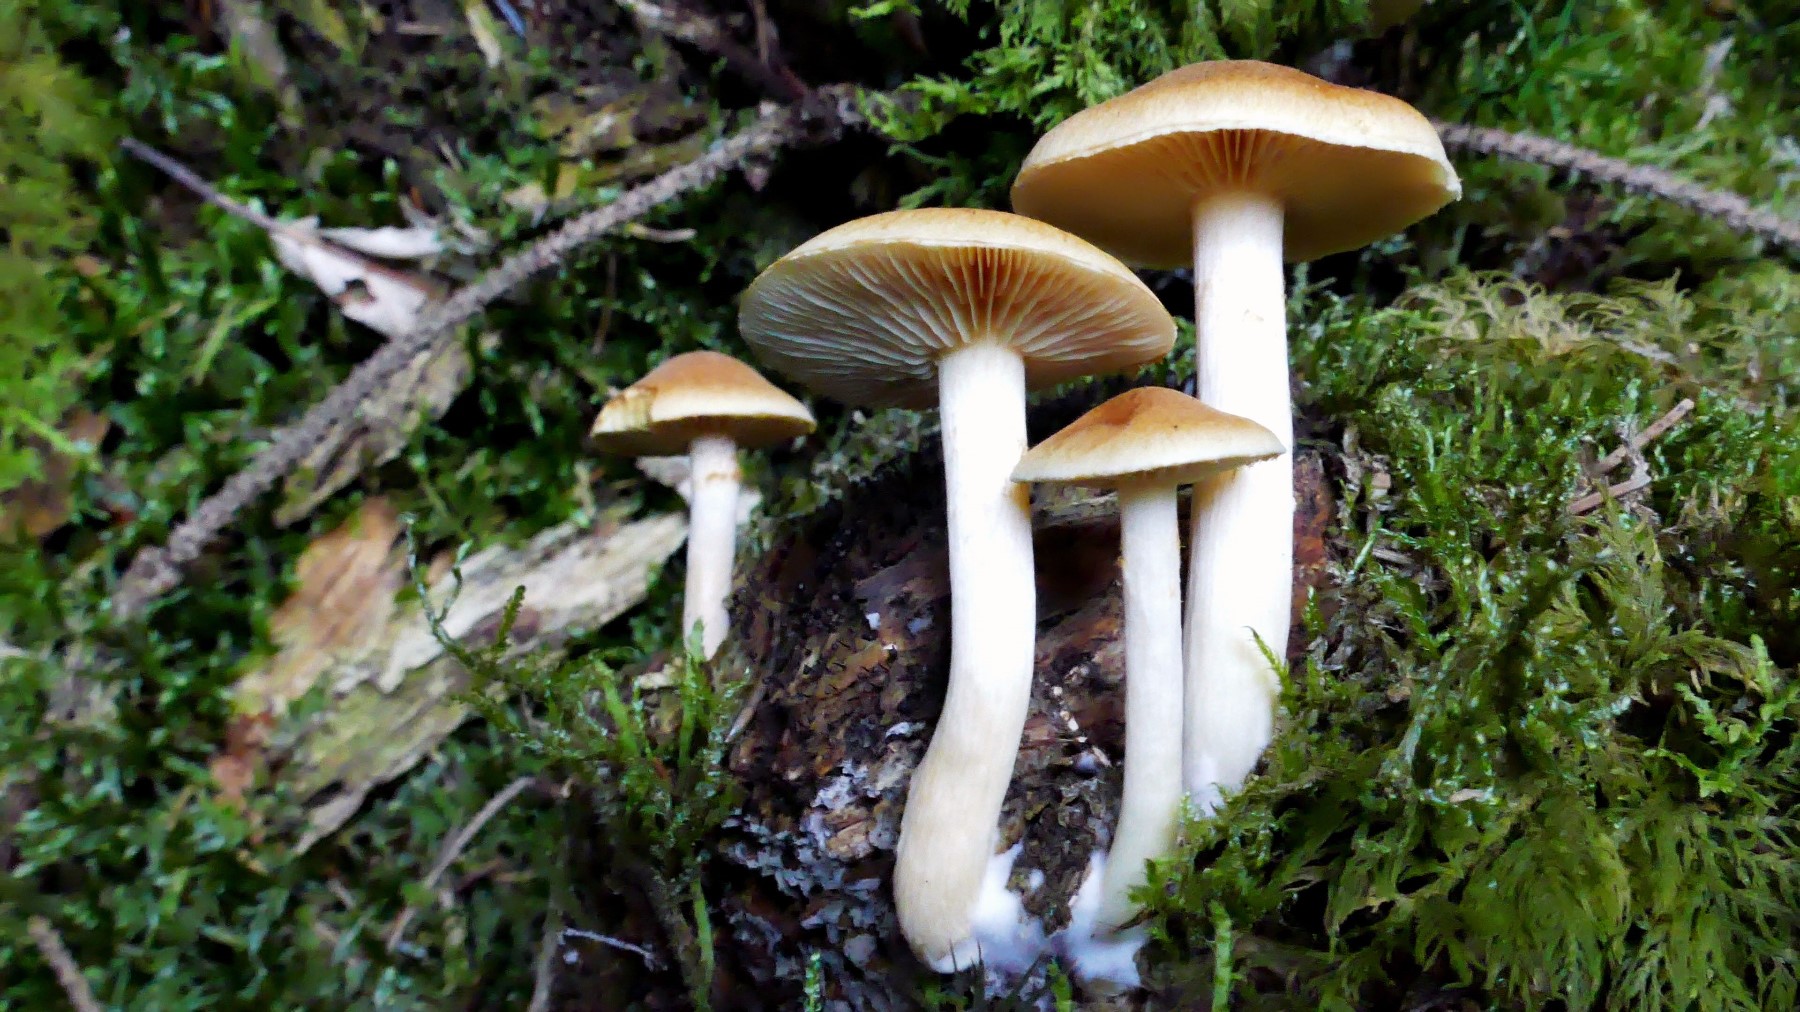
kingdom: Fungi
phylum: Basidiomycota
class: Agaricomycetes
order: Agaricales
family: Hymenogastraceae
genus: Gymnopilus
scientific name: Gymnopilus penetrans
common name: plettet flammehat
